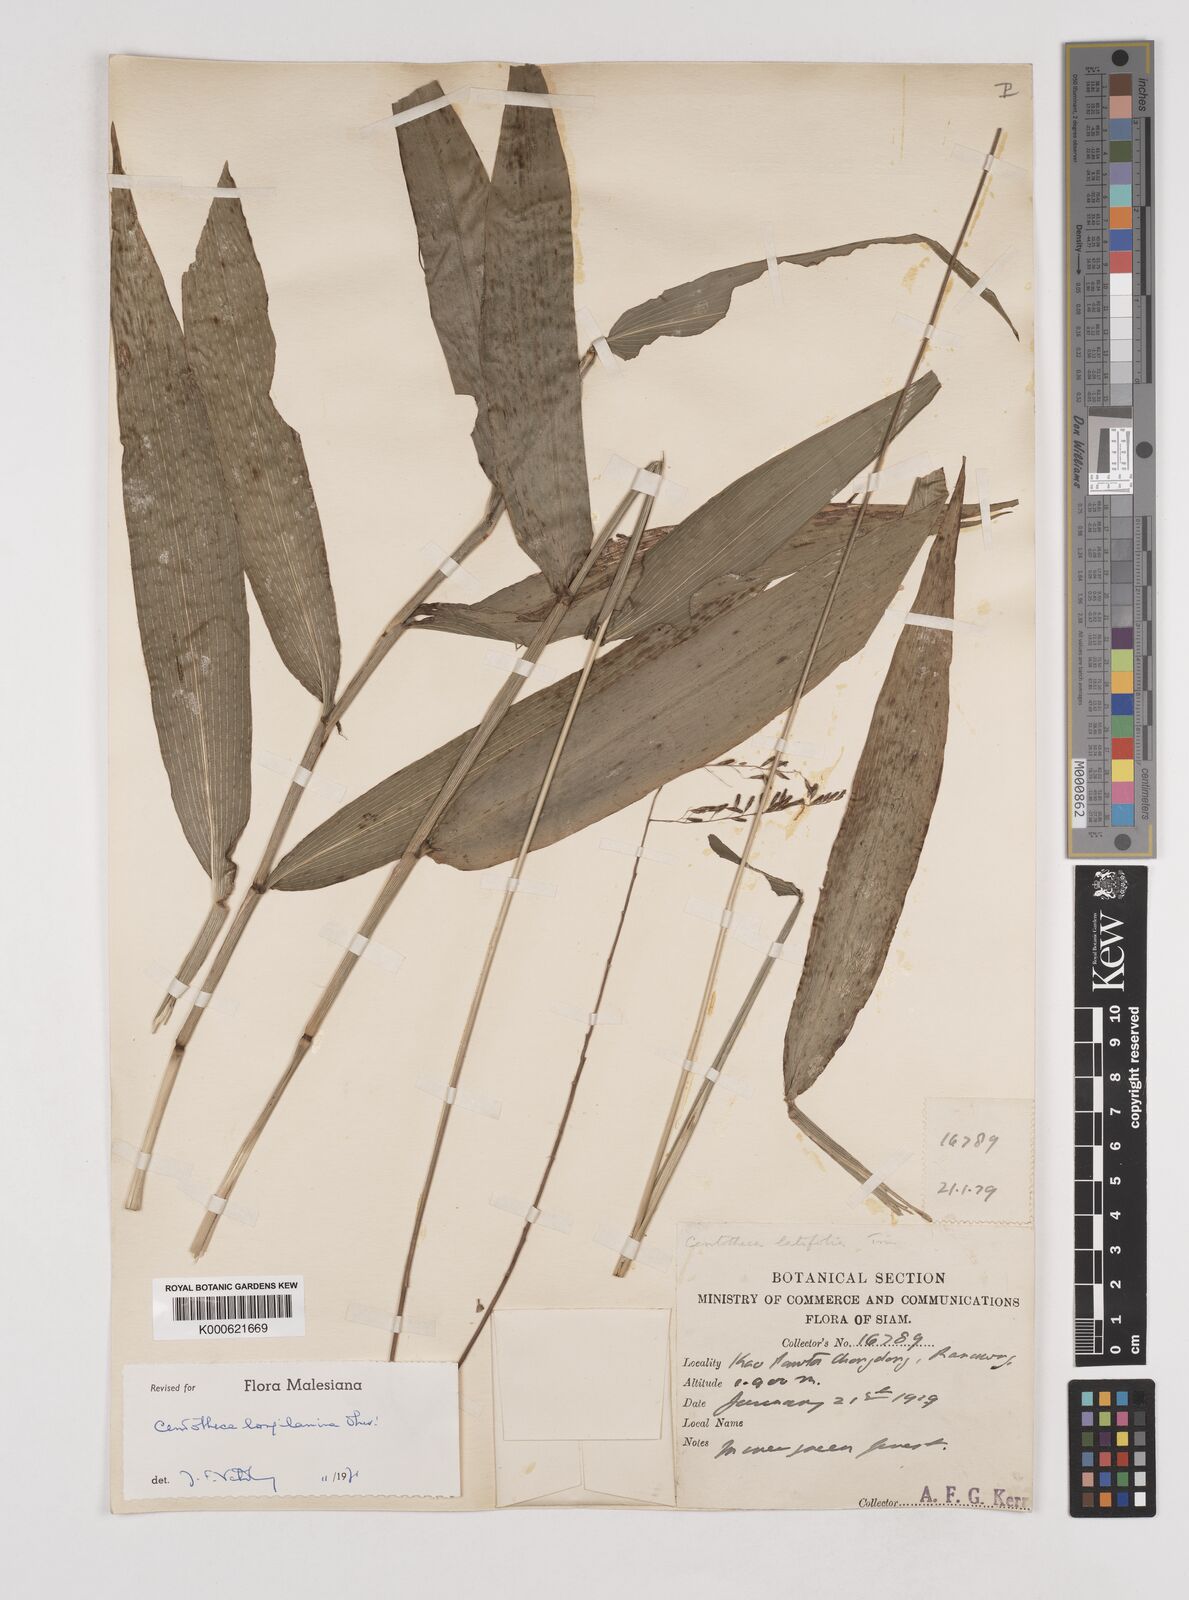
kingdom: Plantae
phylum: Tracheophyta
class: Liliopsida
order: Poales
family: Poaceae
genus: Centotheca
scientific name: Centotheca lappacea
